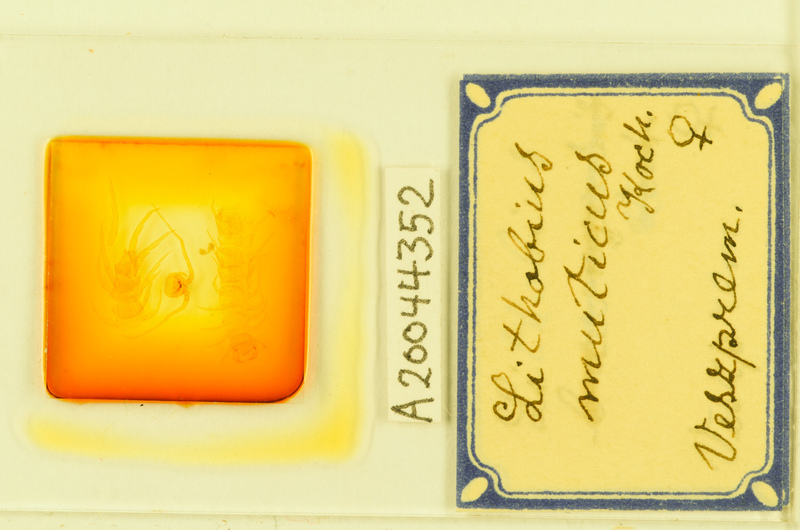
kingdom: Animalia
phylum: Arthropoda
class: Chilopoda
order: Lithobiomorpha
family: Lithobiidae
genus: Lithobius
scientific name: Lithobius muticus
